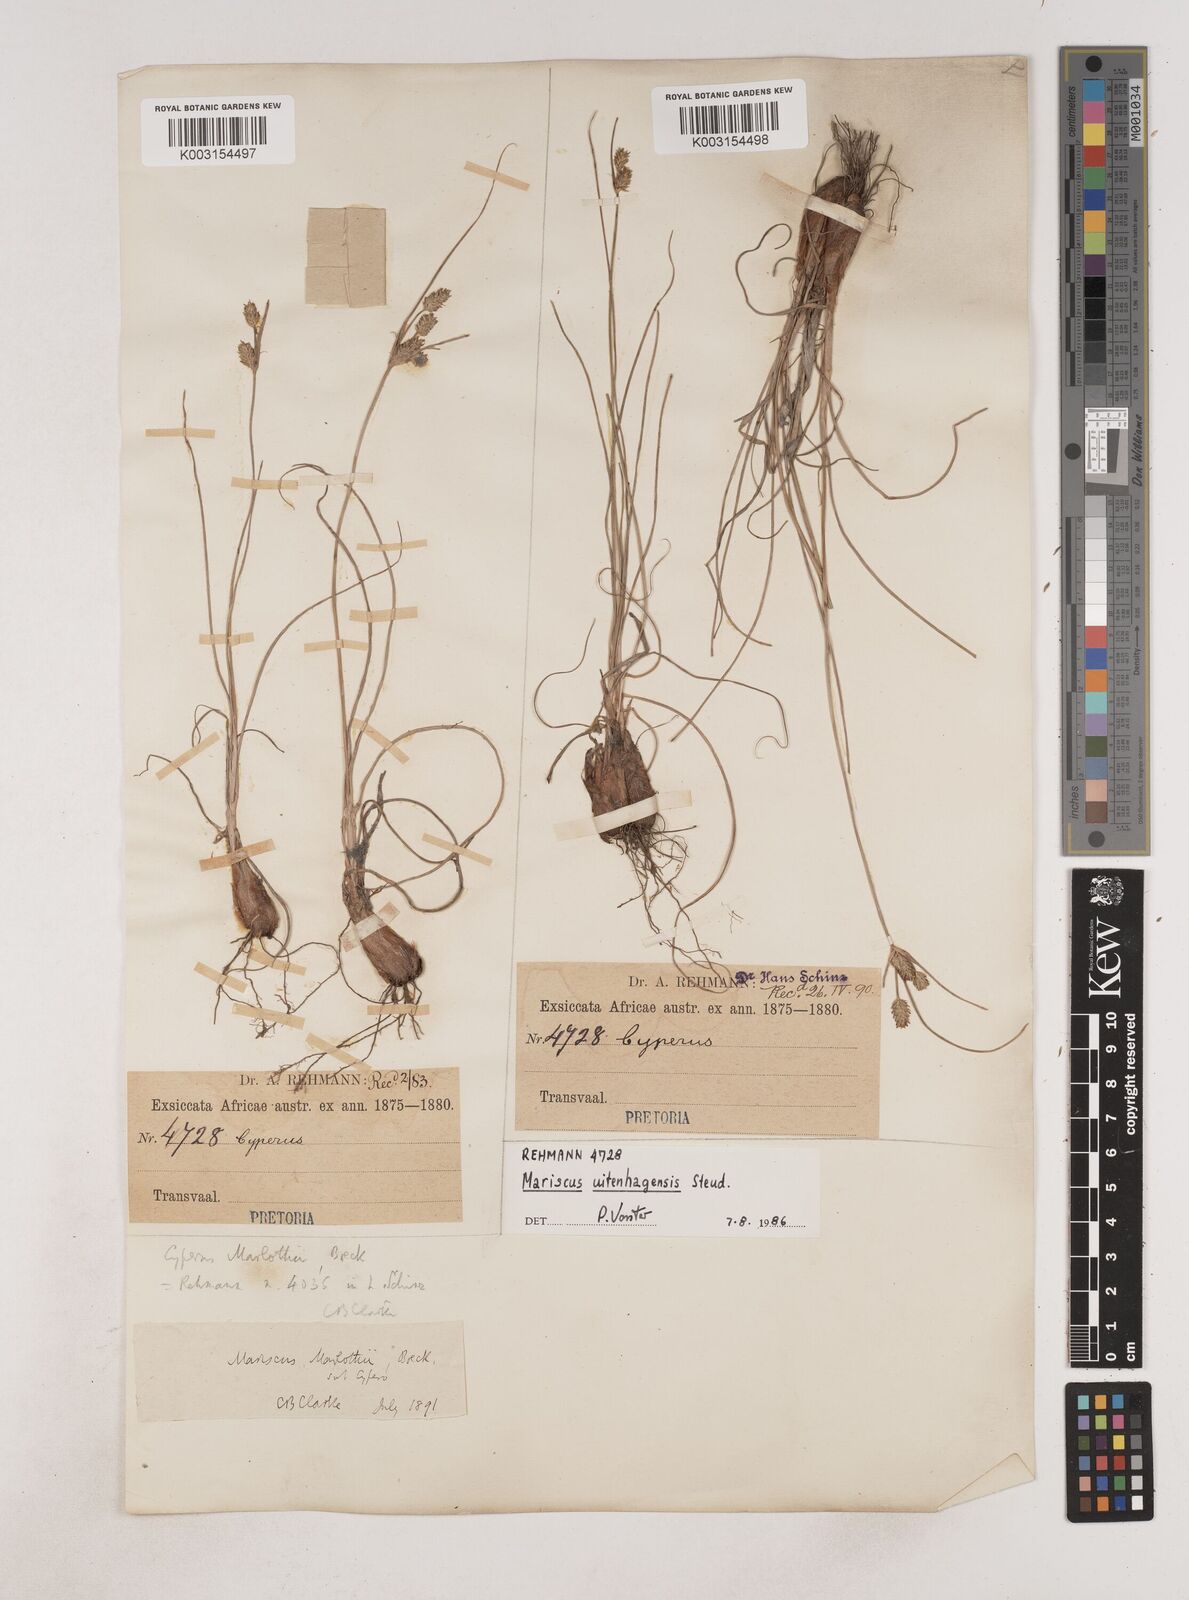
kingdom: Plantae
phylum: Tracheophyta
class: Liliopsida
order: Poales
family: Cyperaceae
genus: Cyperus
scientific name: Cyperus capensis
